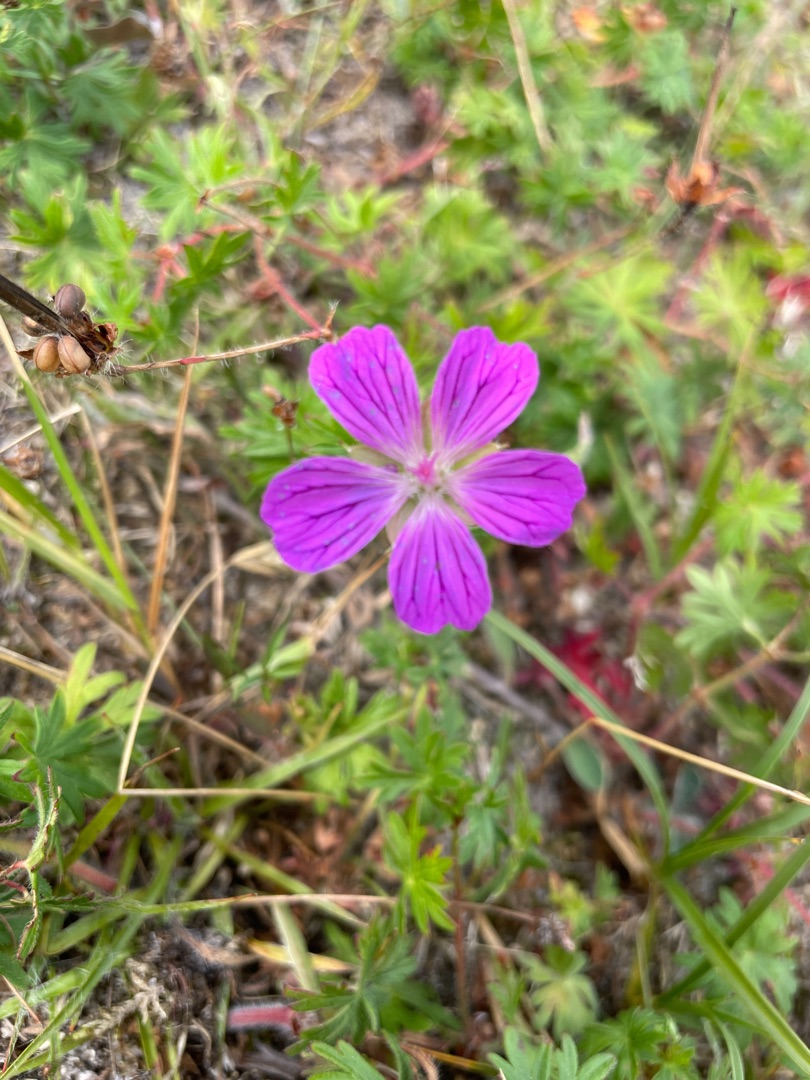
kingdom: Plantae
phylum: Tracheophyta
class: Magnoliopsida
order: Geraniales
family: Geraniaceae
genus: Geranium
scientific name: Geranium sanguineum
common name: Blodrød storkenæb
